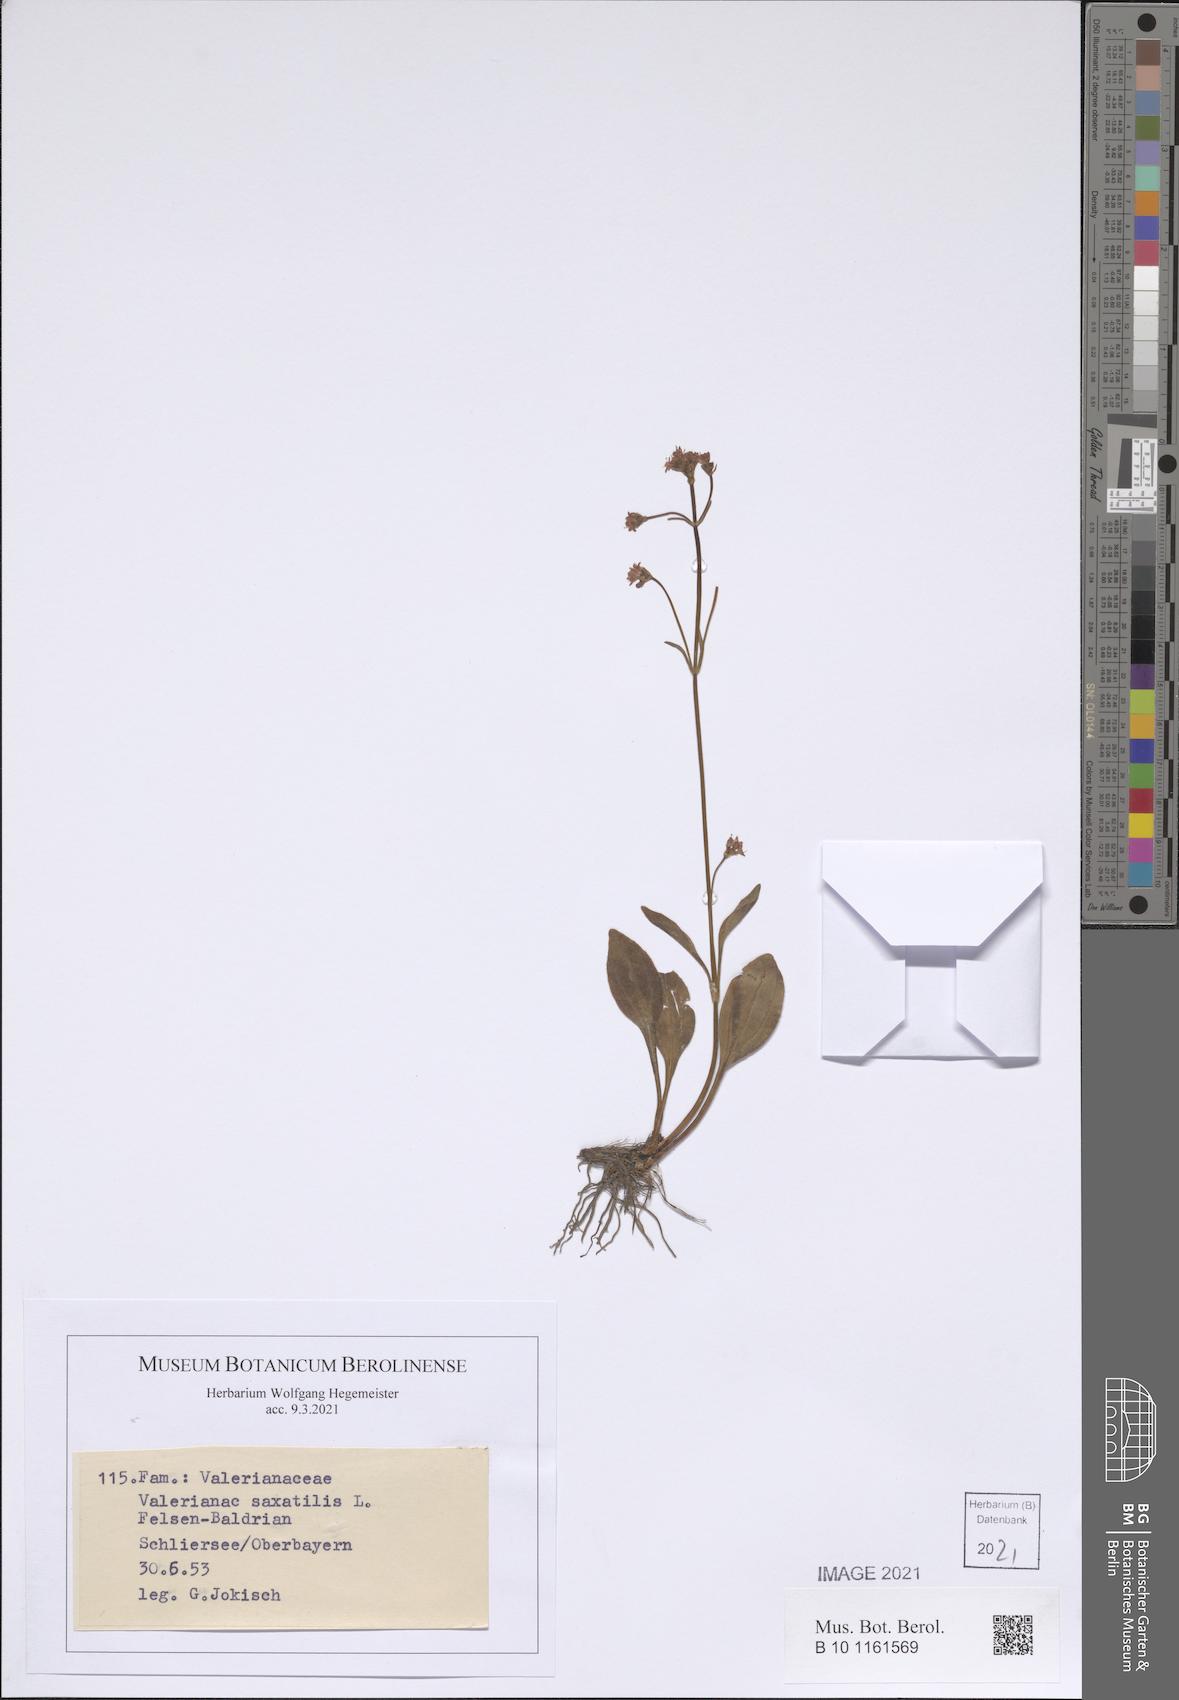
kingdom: Plantae
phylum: Tracheophyta
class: Magnoliopsida
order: Dipsacales
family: Caprifoliaceae
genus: Valeriana
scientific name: Valeriana saxatilis
